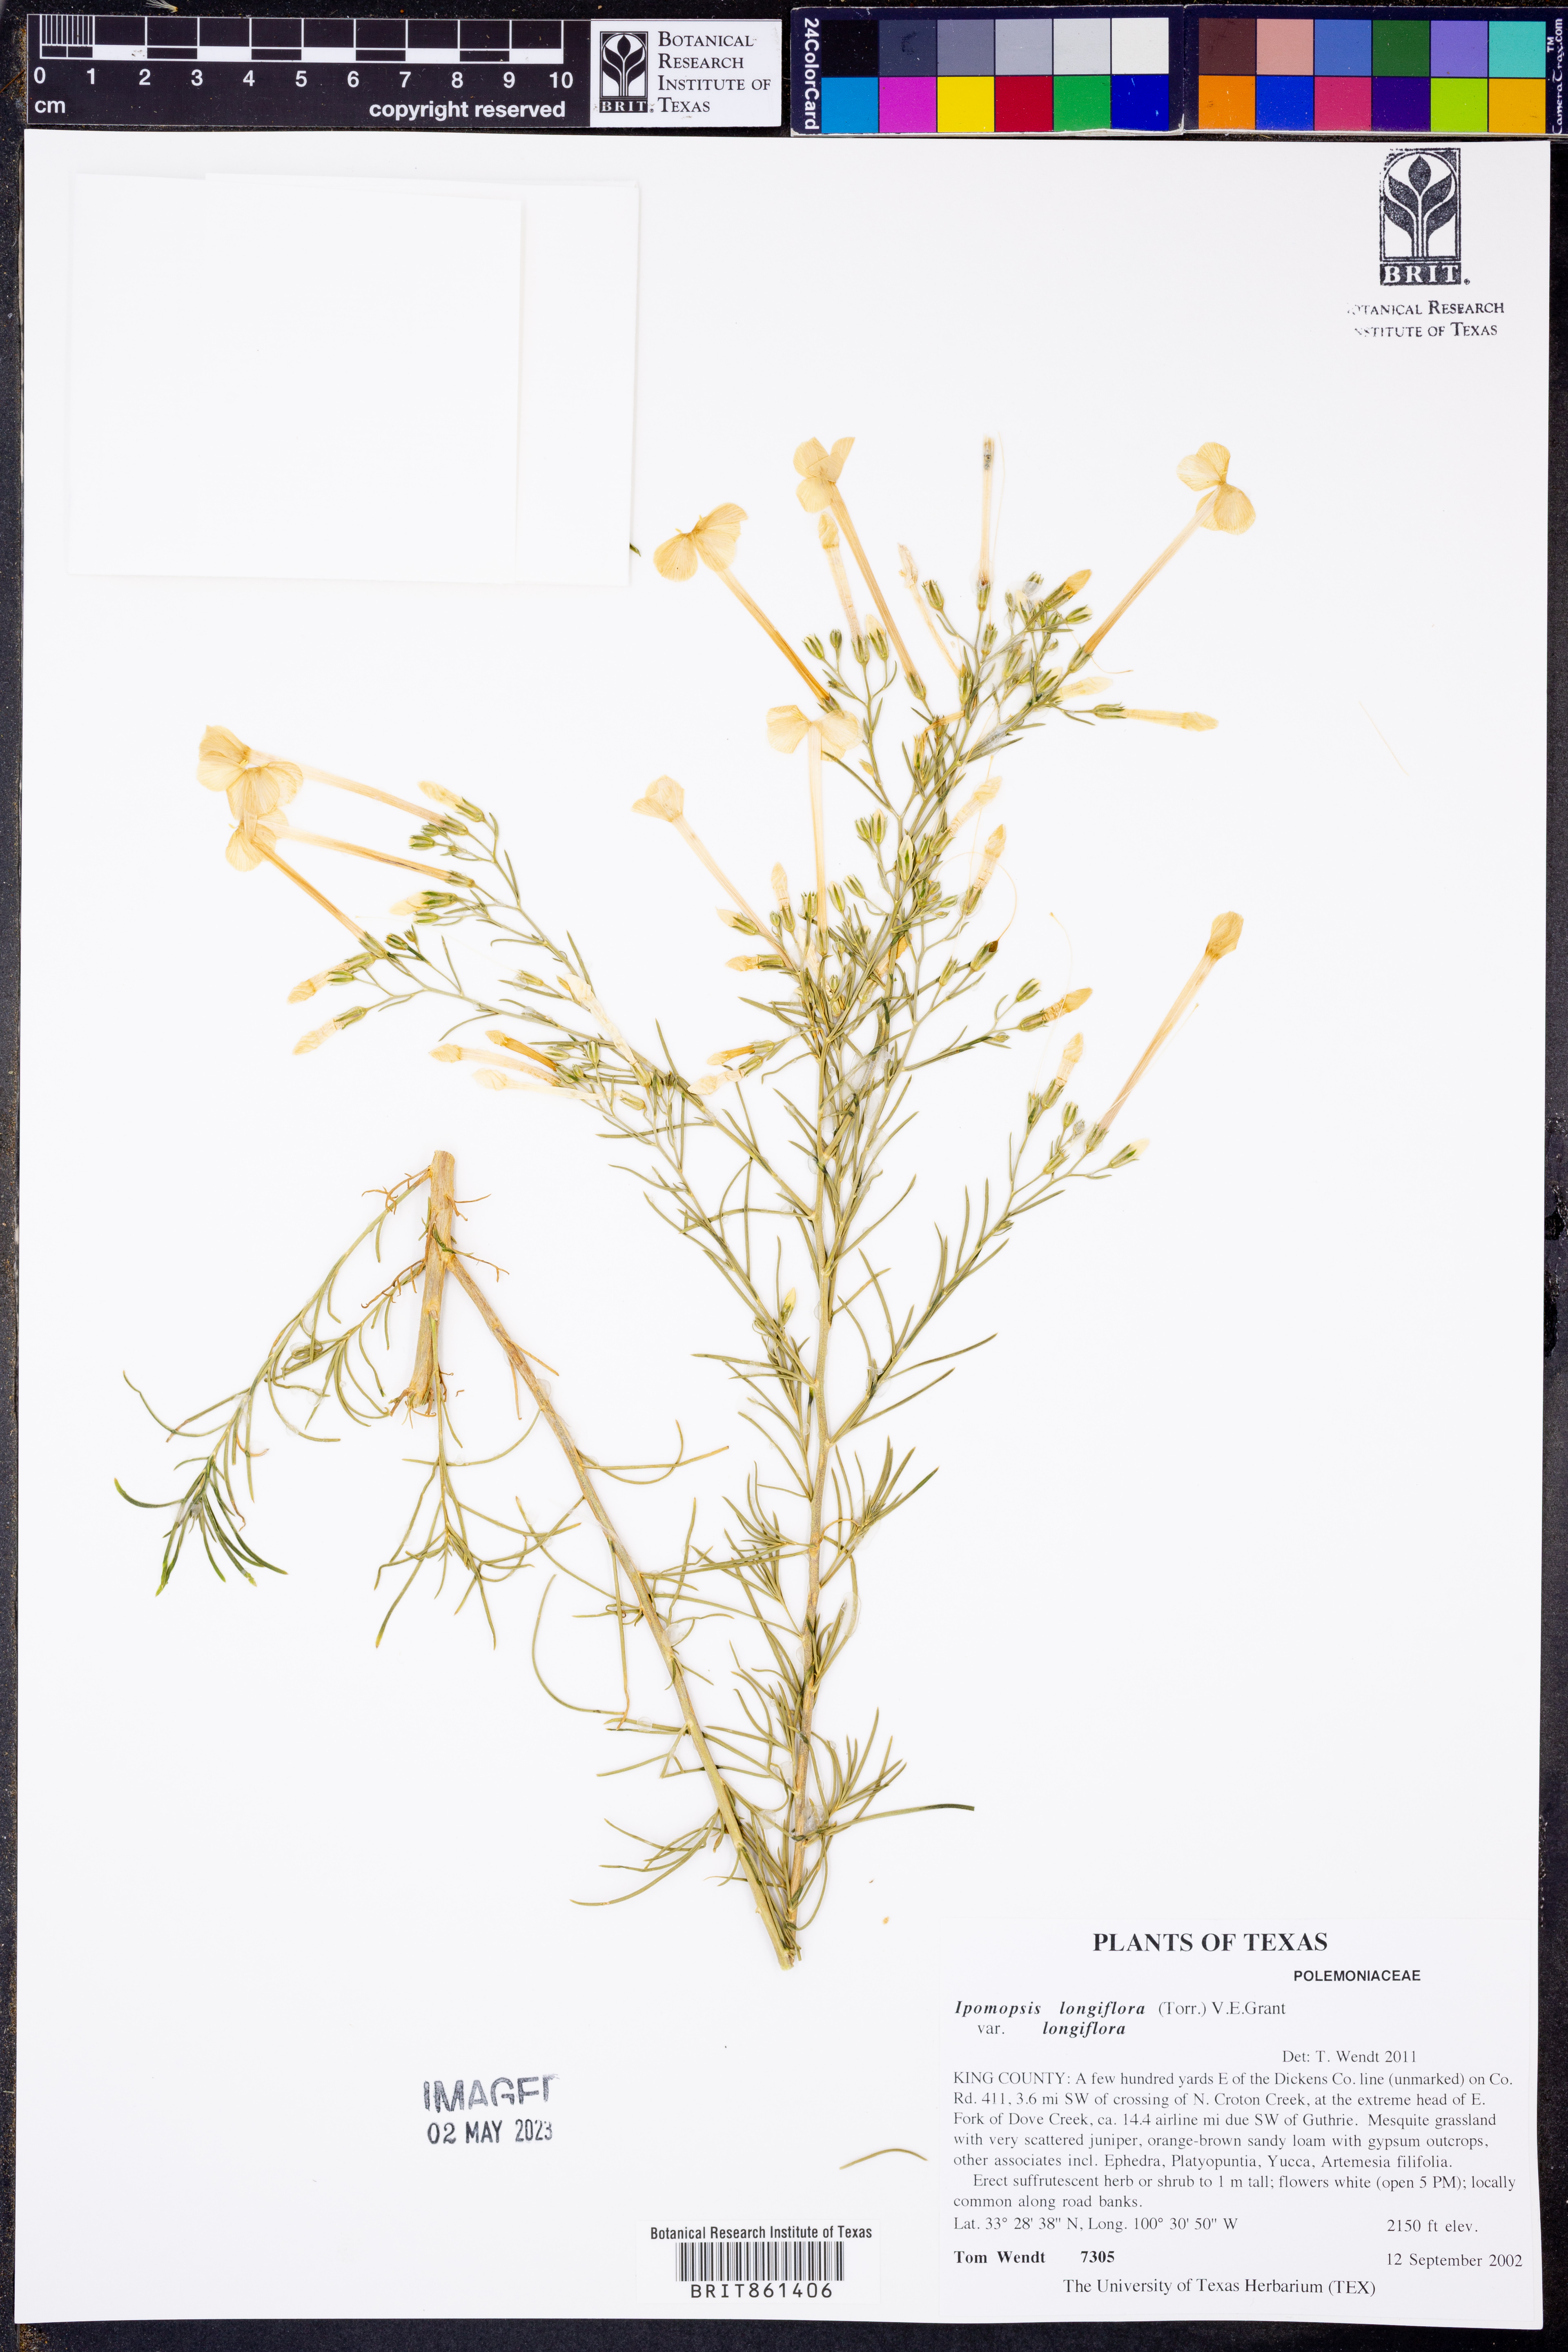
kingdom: Plantae
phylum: Tracheophyta
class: Magnoliopsida
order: Ericales
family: Polemoniaceae
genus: Ipomopsis
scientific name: Ipomopsis longiflora
